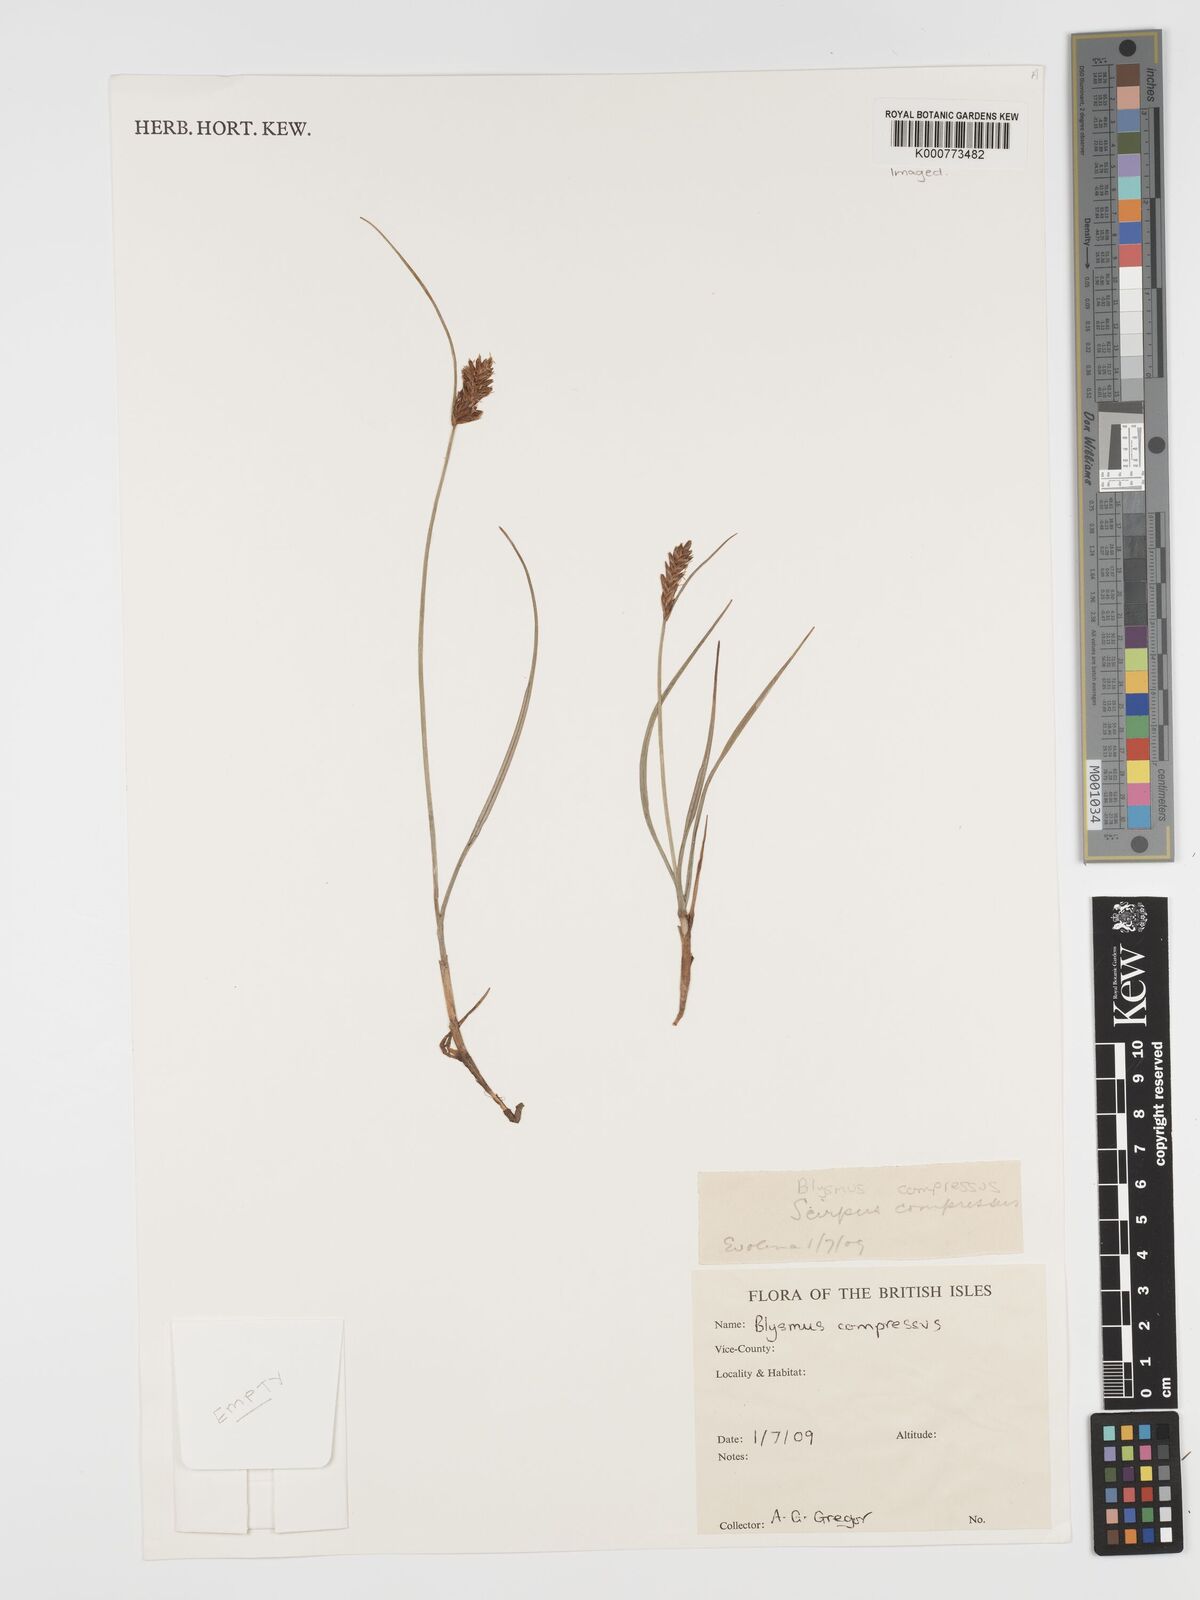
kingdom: Plantae
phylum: Tracheophyta
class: Liliopsida
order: Poales
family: Cyperaceae
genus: Blysmus
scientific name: Blysmus compressus
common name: Flat-sedge
